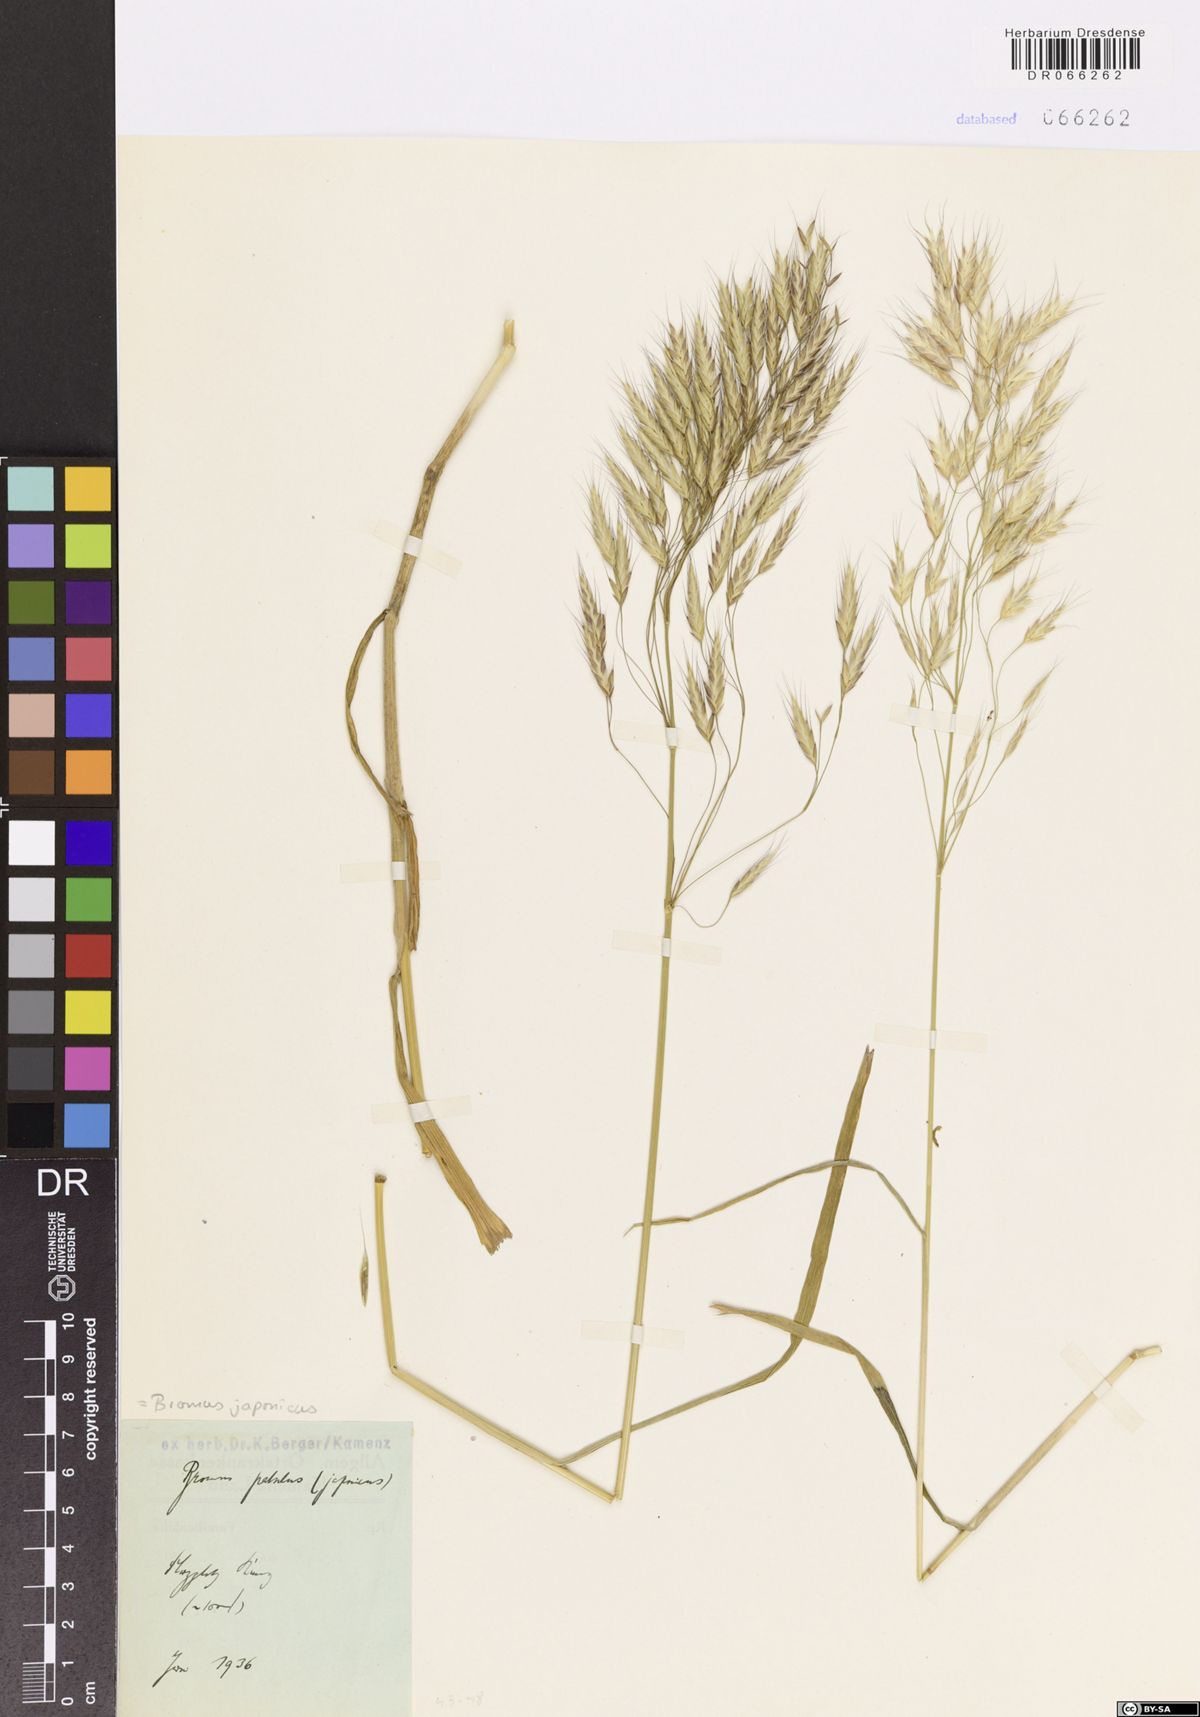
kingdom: Plantae
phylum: Tracheophyta
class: Liliopsida
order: Poales
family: Poaceae
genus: Bromus
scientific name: Bromus japonicus
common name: Japanese brome
